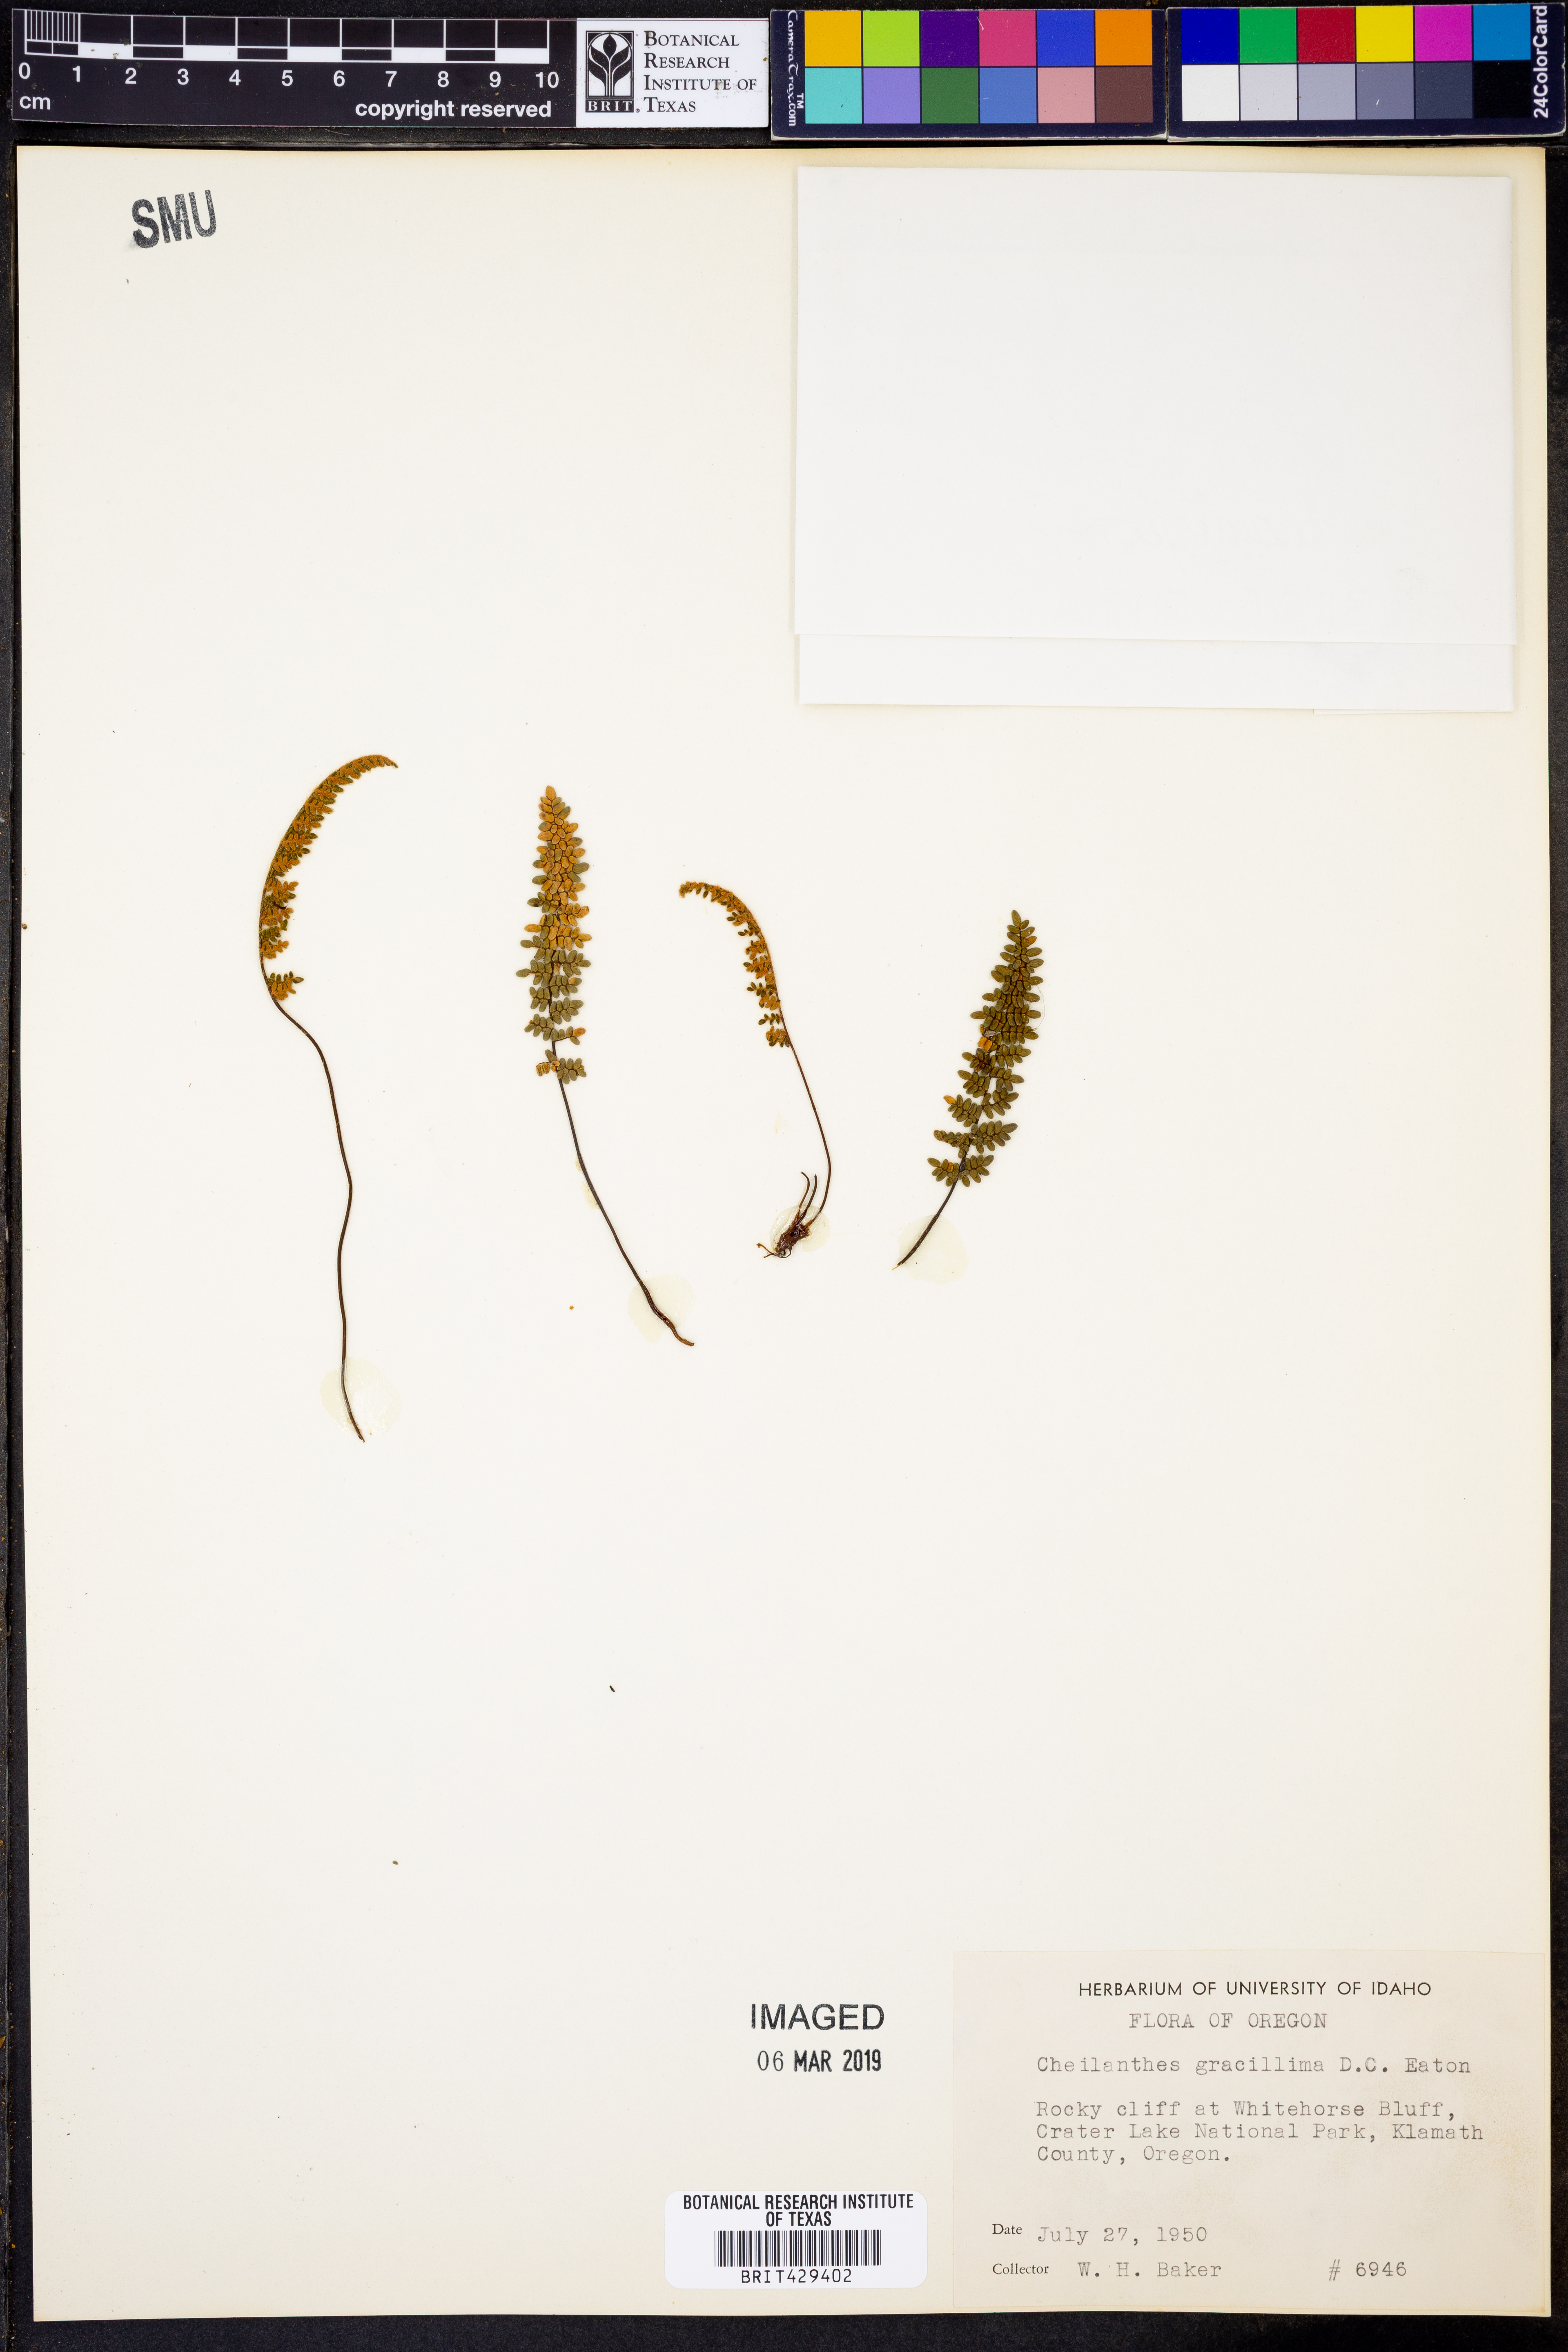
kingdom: Plantae
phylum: Tracheophyta
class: Polypodiopsida
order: Polypodiales
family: Pteridaceae
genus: Myriopteris
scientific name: Myriopteris gracillima
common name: Lace fern
